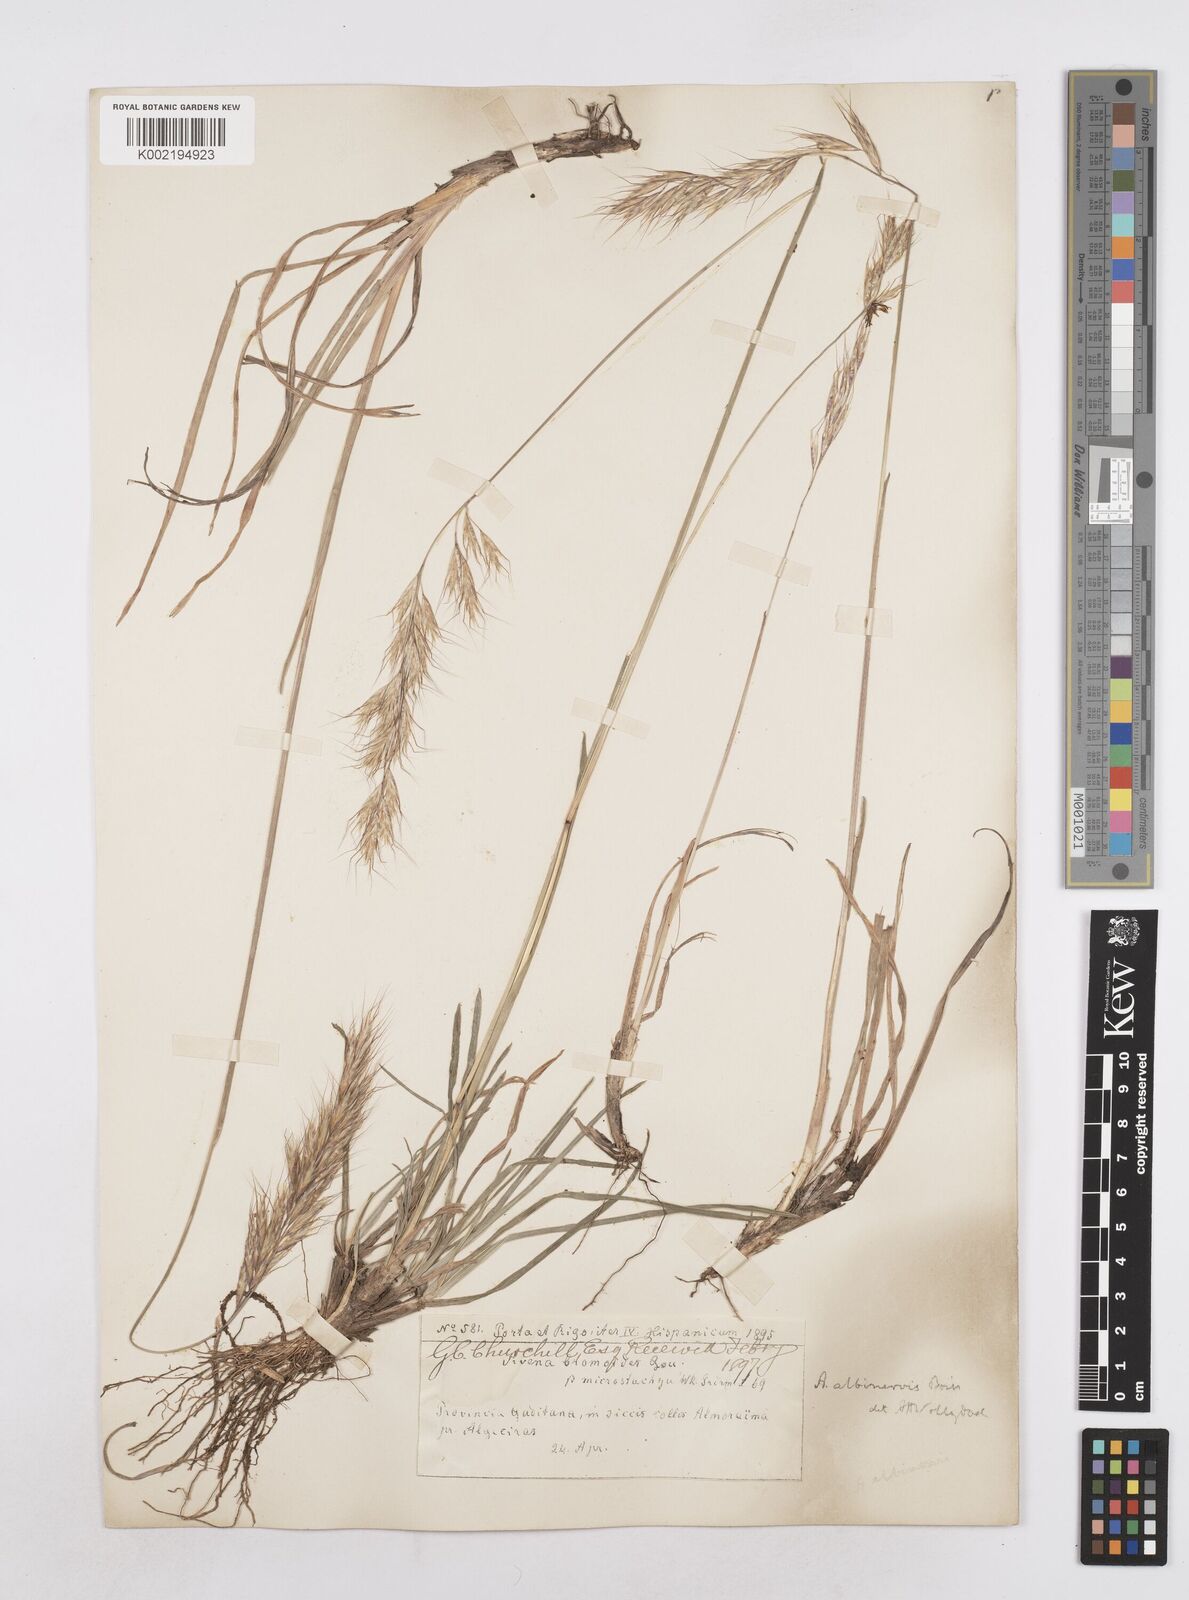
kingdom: Plantae
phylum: Tracheophyta
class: Liliopsida
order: Poales
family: Poaceae
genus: Helictochloa
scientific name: Helictochloa albinervis
